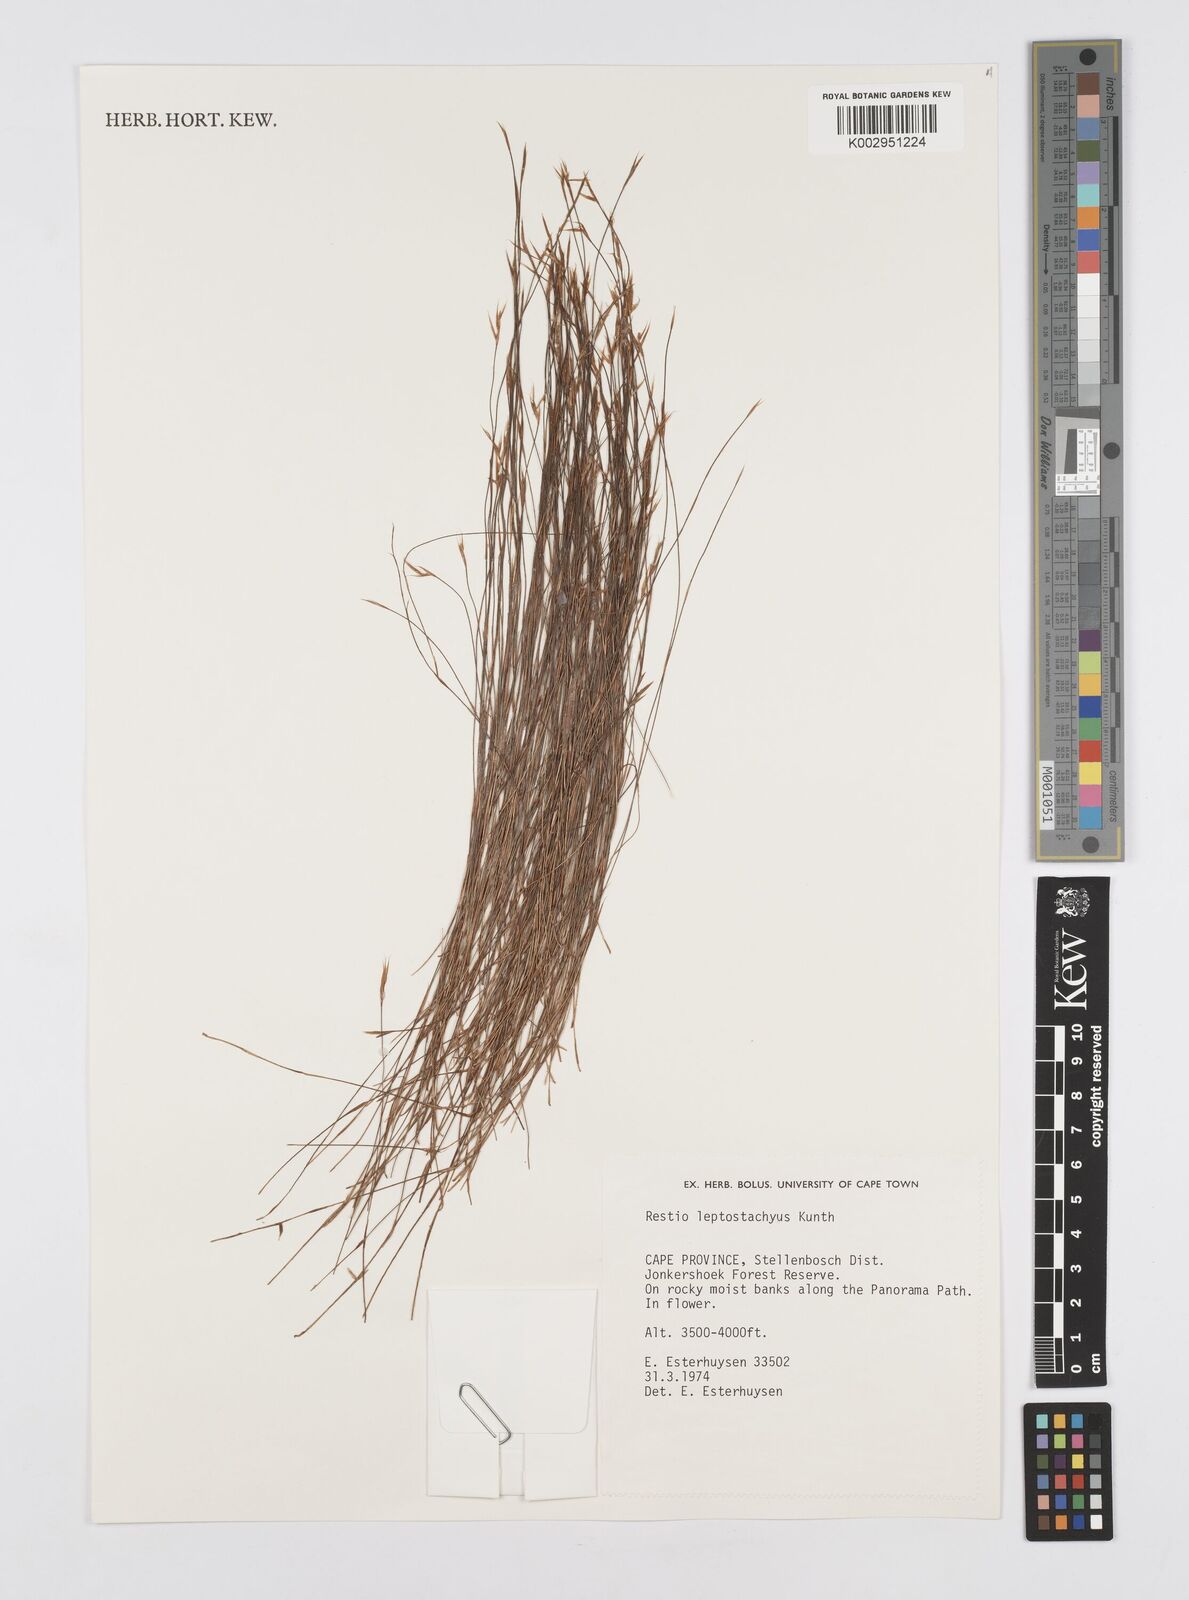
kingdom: Plantae
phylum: Tracheophyta
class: Liliopsida
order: Poales
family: Restionaceae
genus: Restio
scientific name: Restio leptostachyus
